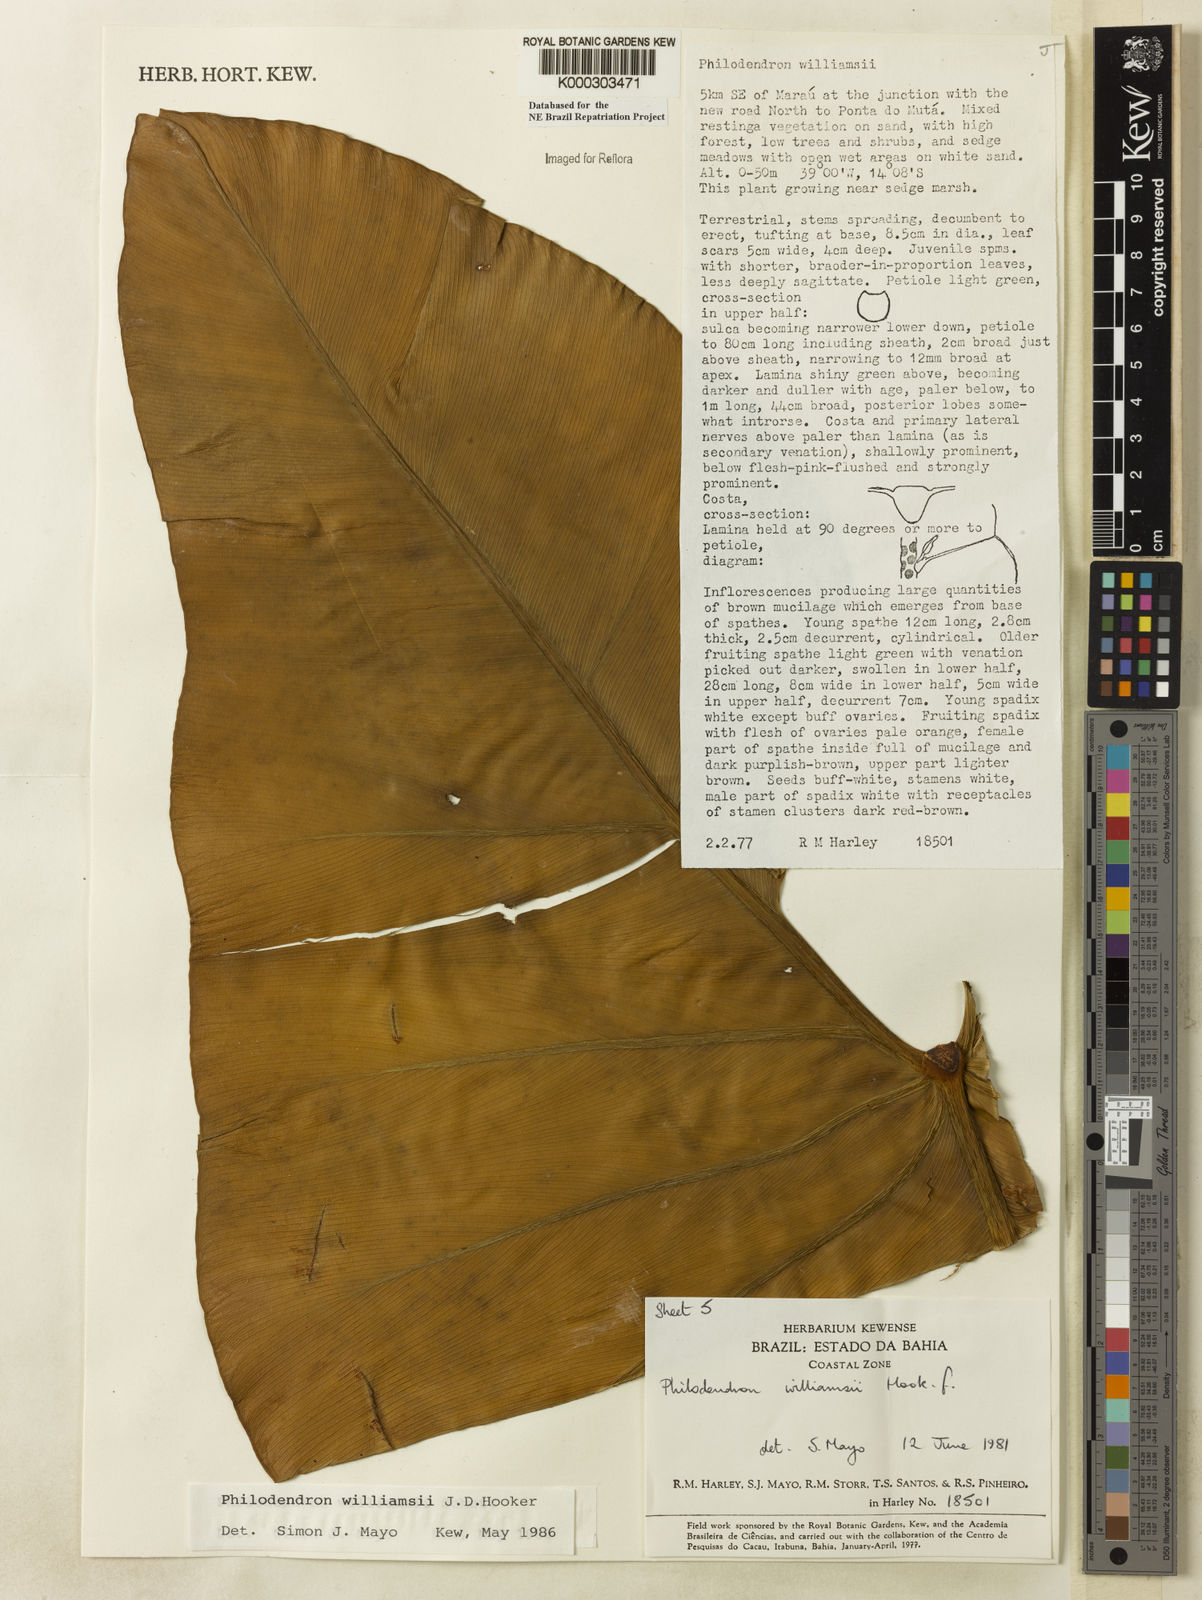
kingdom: Plantae
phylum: Tracheophyta
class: Liliopsida
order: Alismatales
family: Araceae
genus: Thaumatophyllum
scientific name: Thaumatophyllum williamsii
